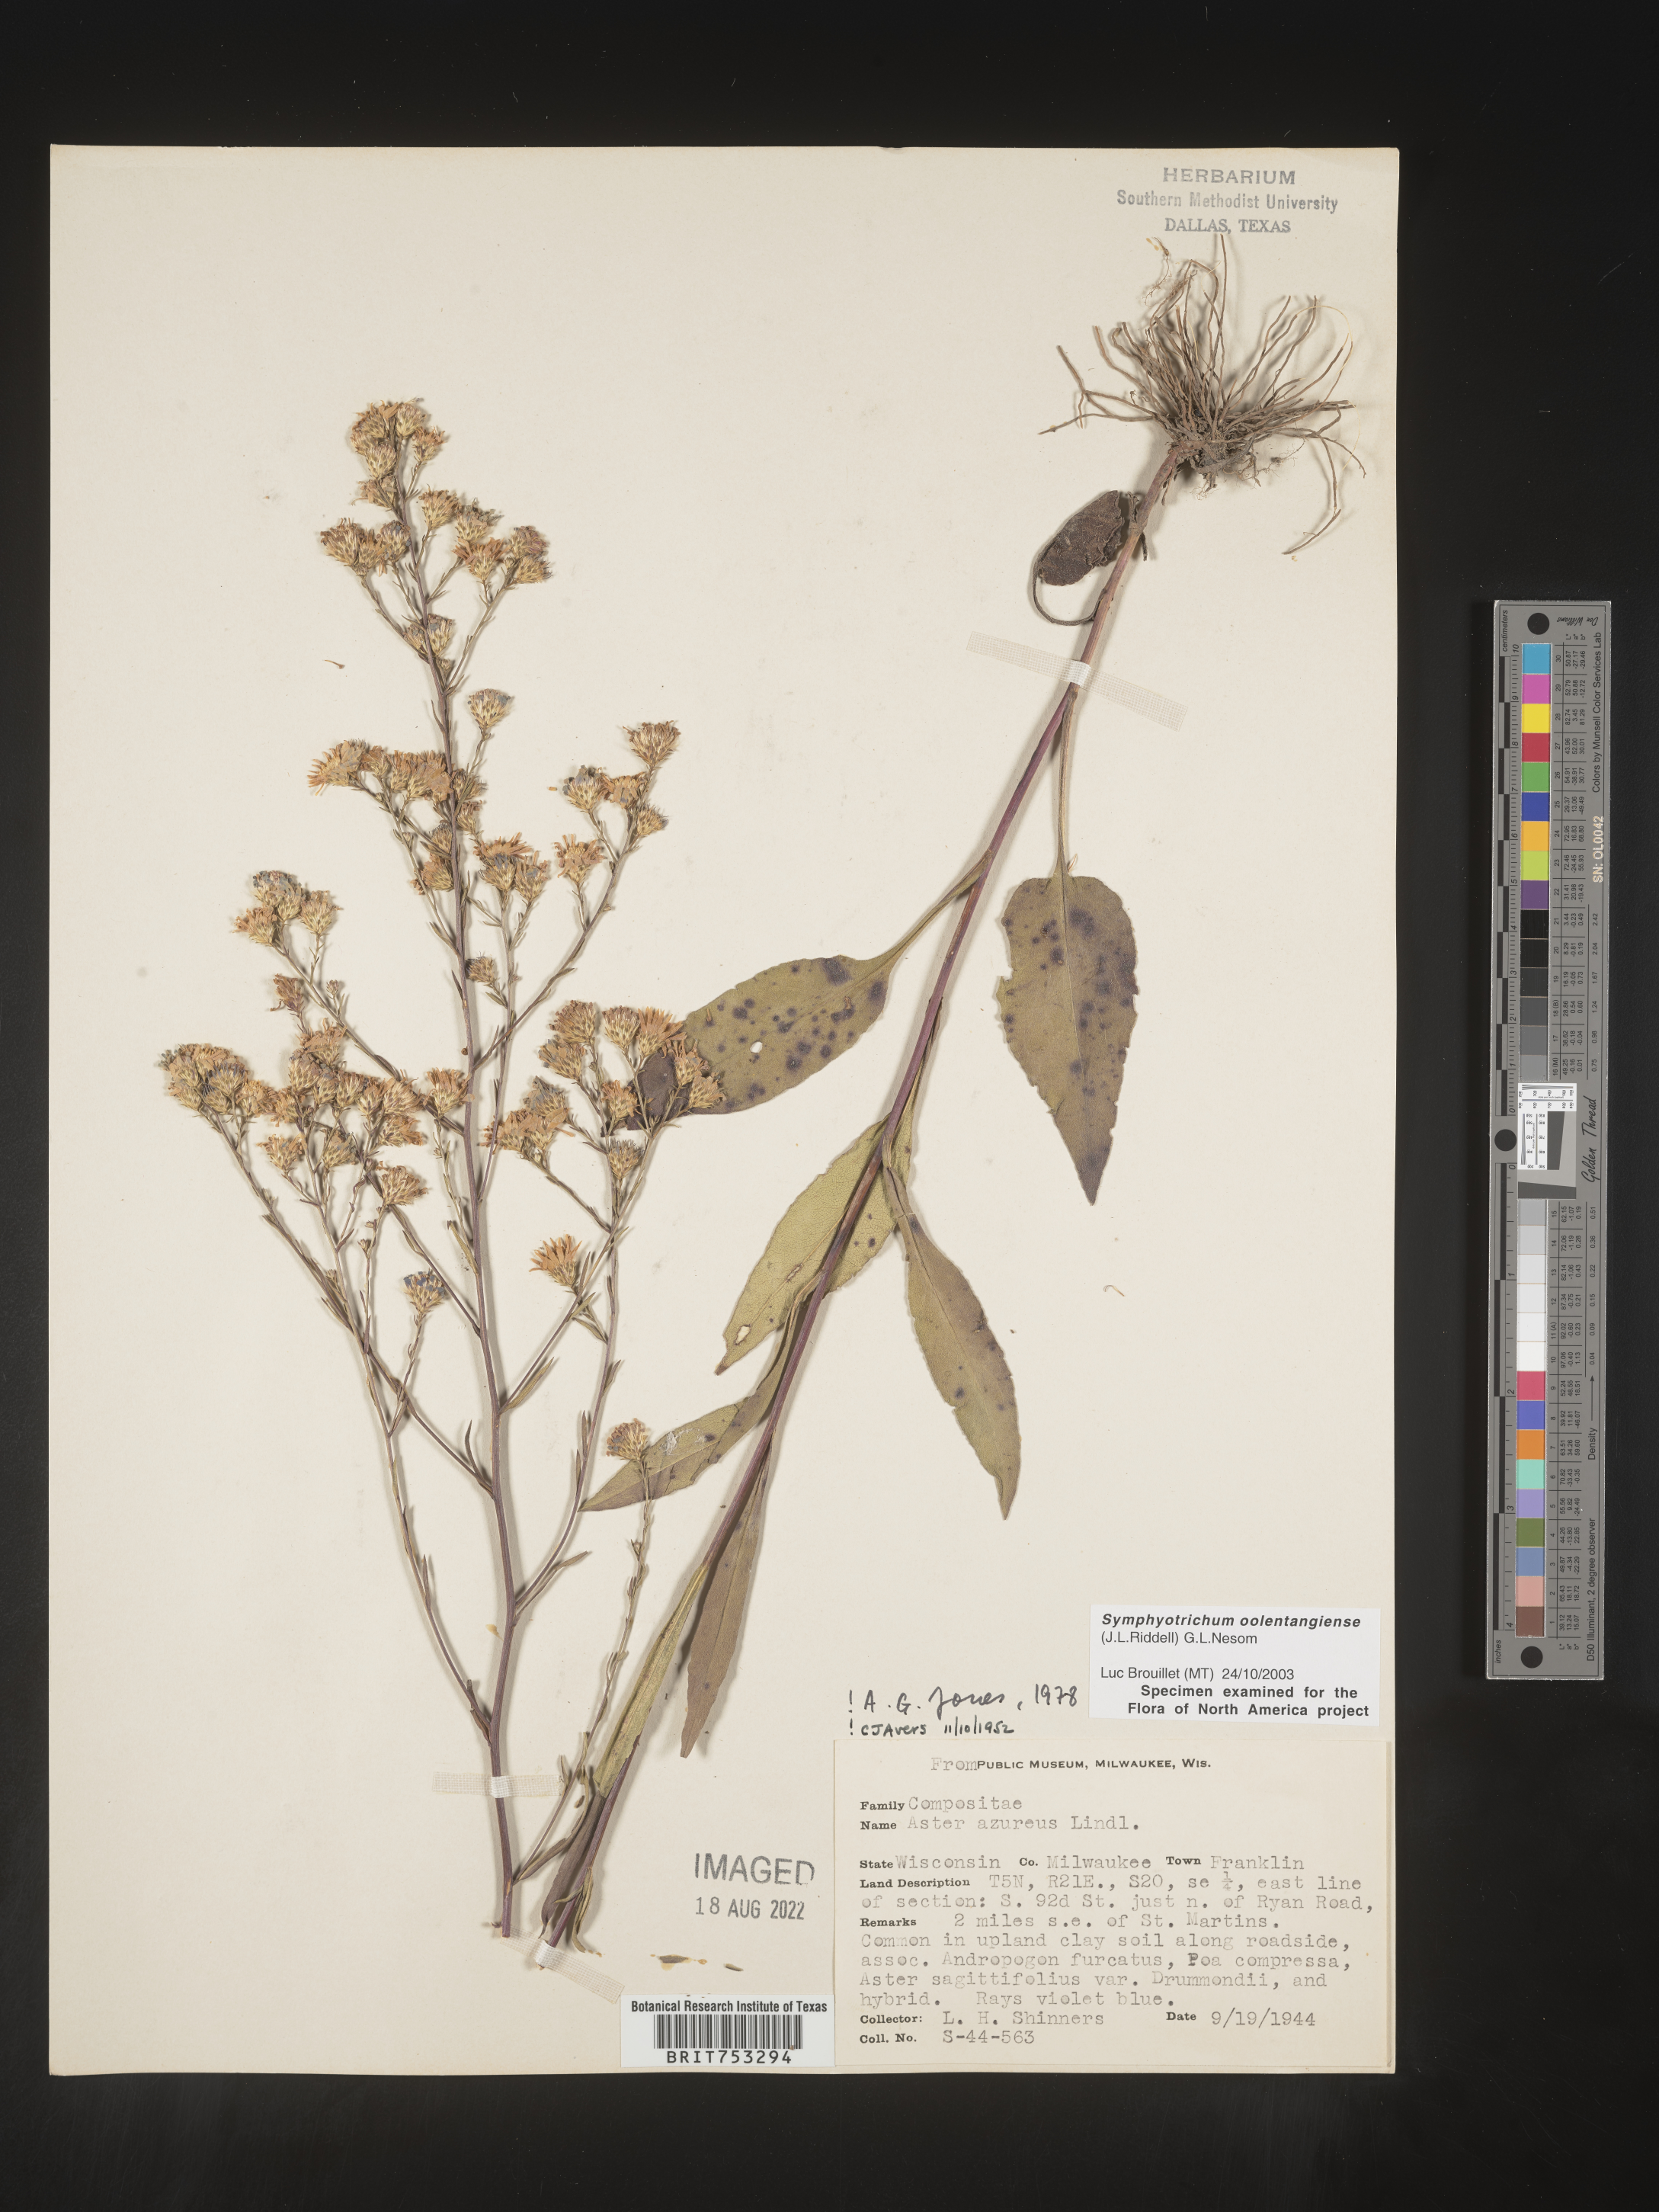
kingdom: Plantae
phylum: Tracheophyta
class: Magnoliopsida
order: Asterales
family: Asteraceae
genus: Symphyotrichum
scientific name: Symphyotrichum oolentangiense
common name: Azure aster
